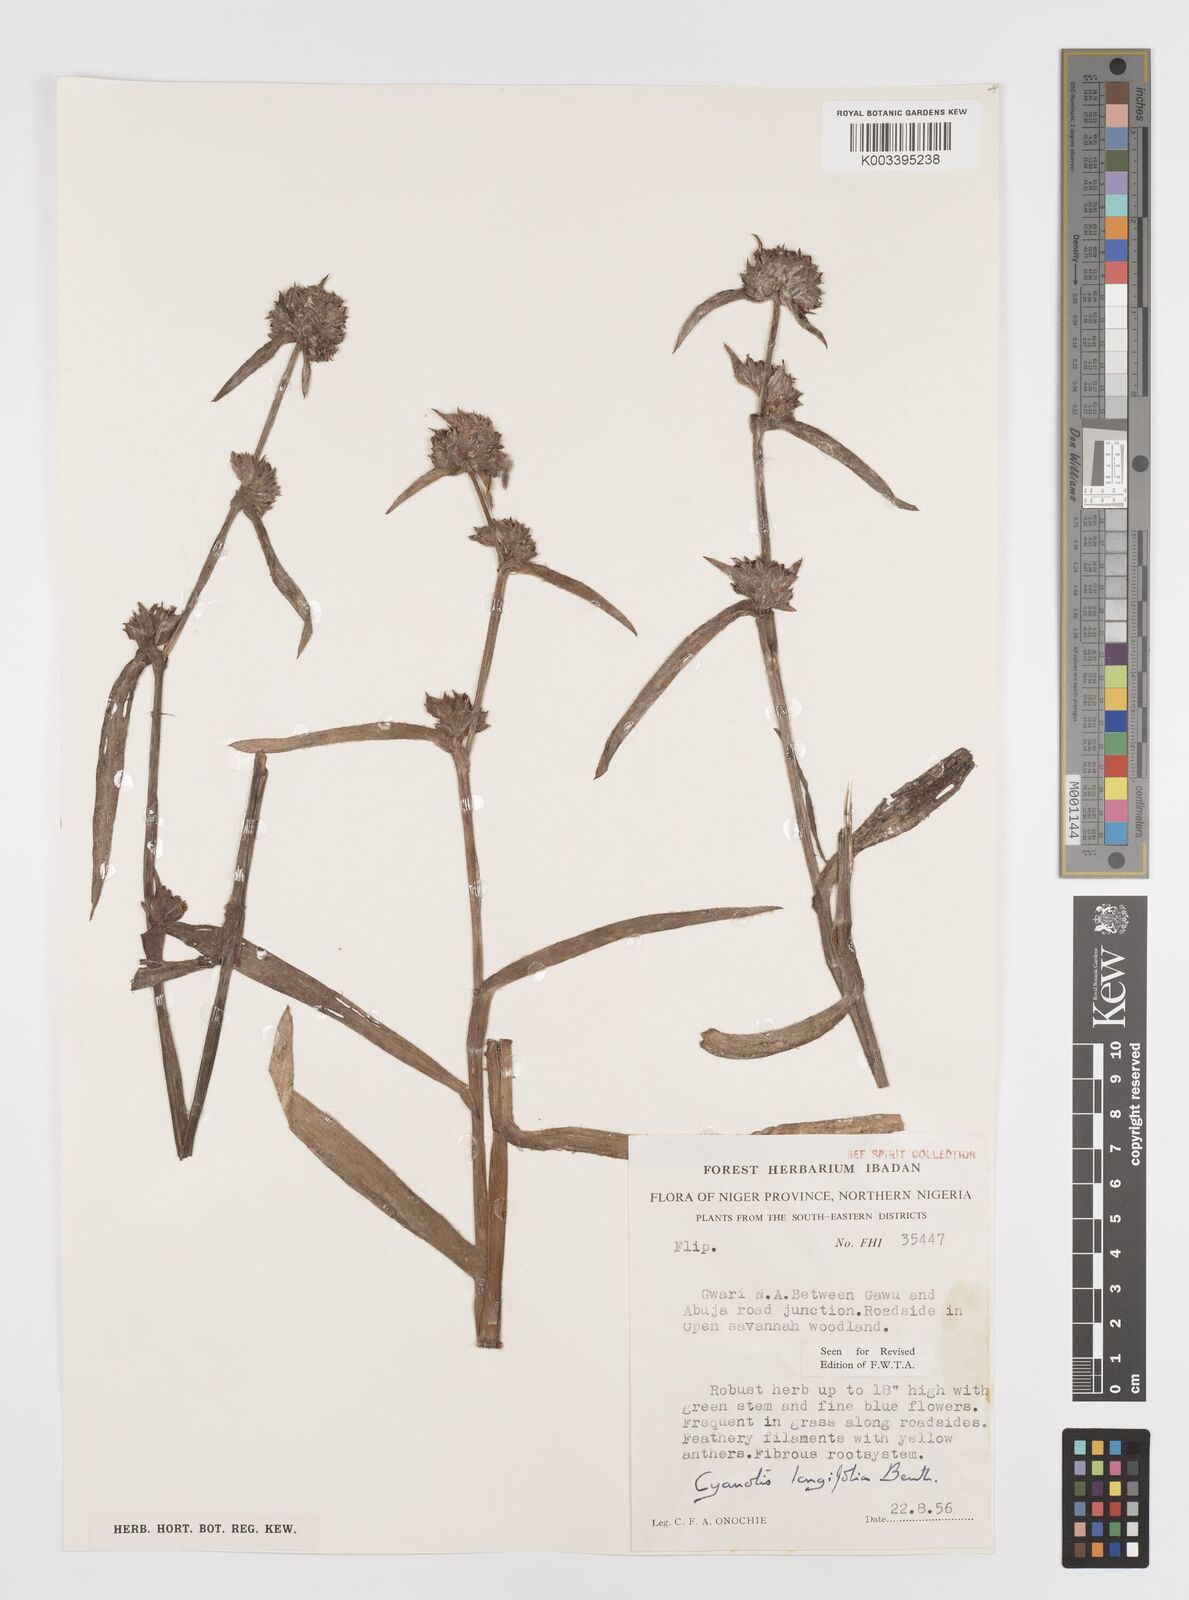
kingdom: Plantae
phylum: Tracheophyta
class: Liliopsida
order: Commelinales
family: Commelinaceae
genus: Cyanotis
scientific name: Cyanotis
